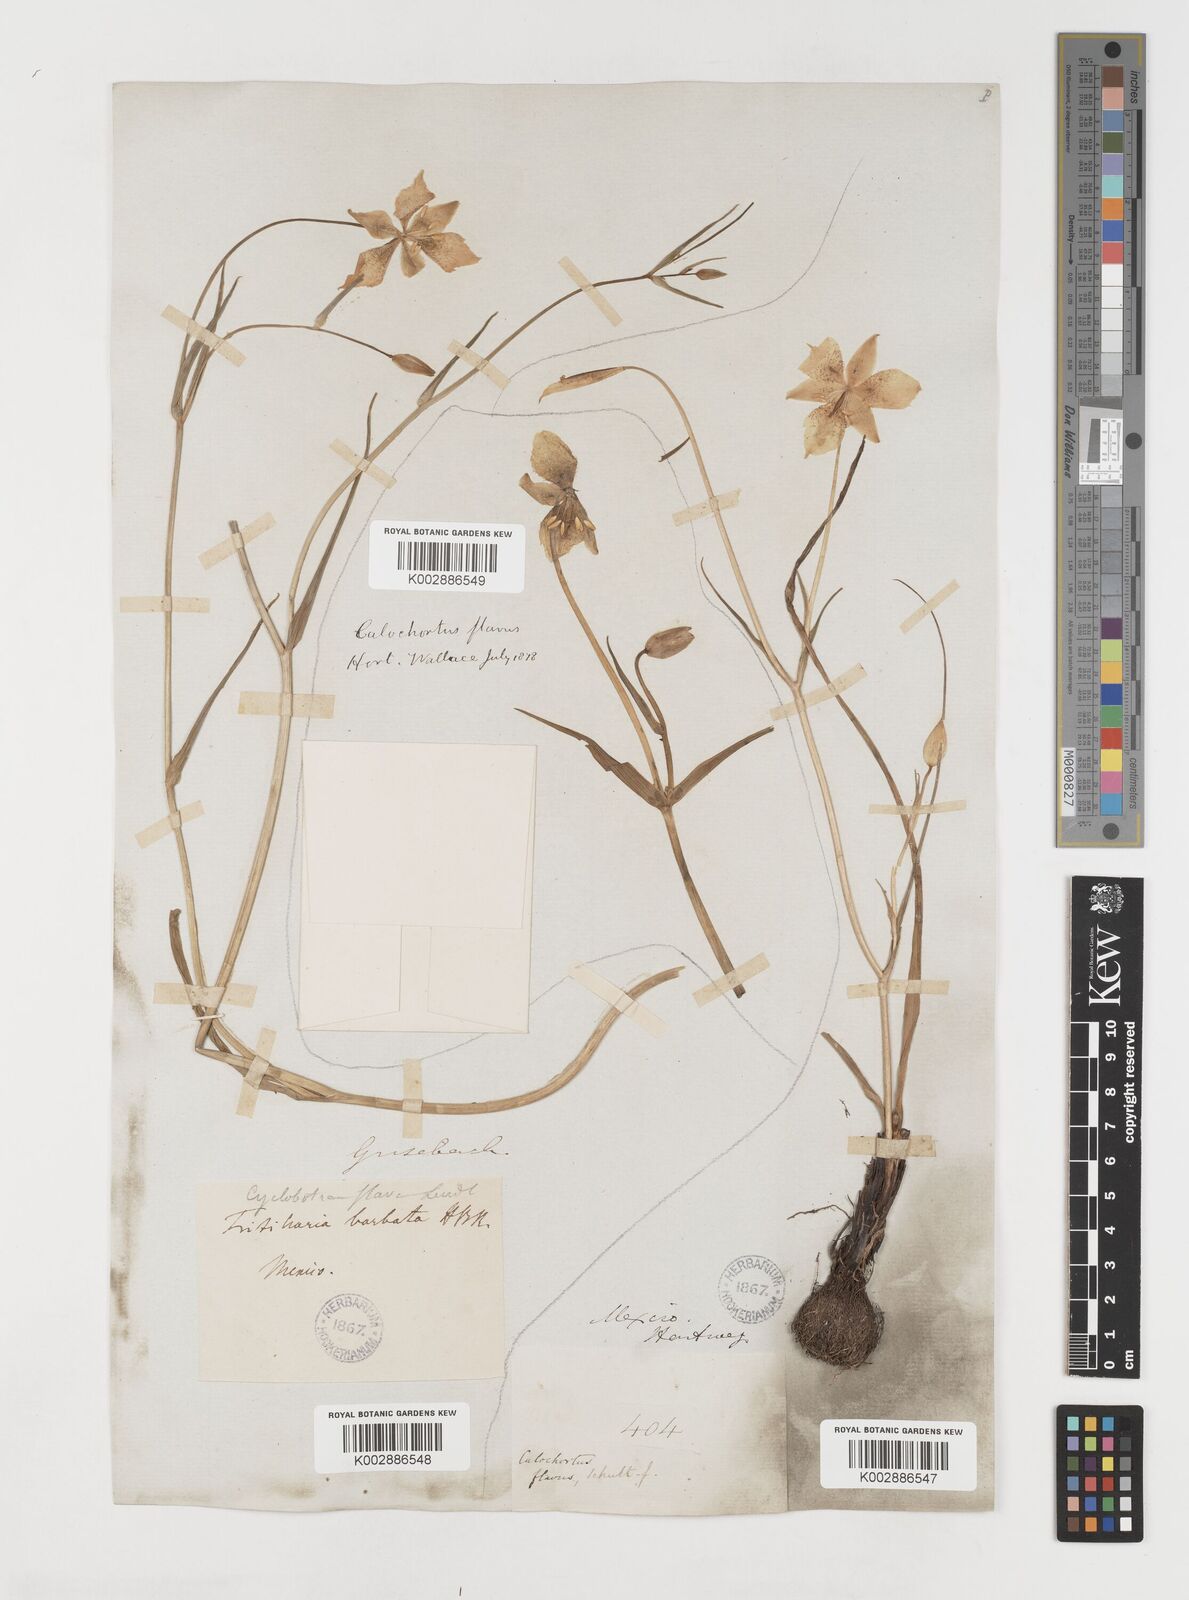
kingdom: Plantae
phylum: Tracheophyta
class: Liliopsida
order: Liliales
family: Liliaceae
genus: Calochortus
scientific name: Calochortus barbatus
